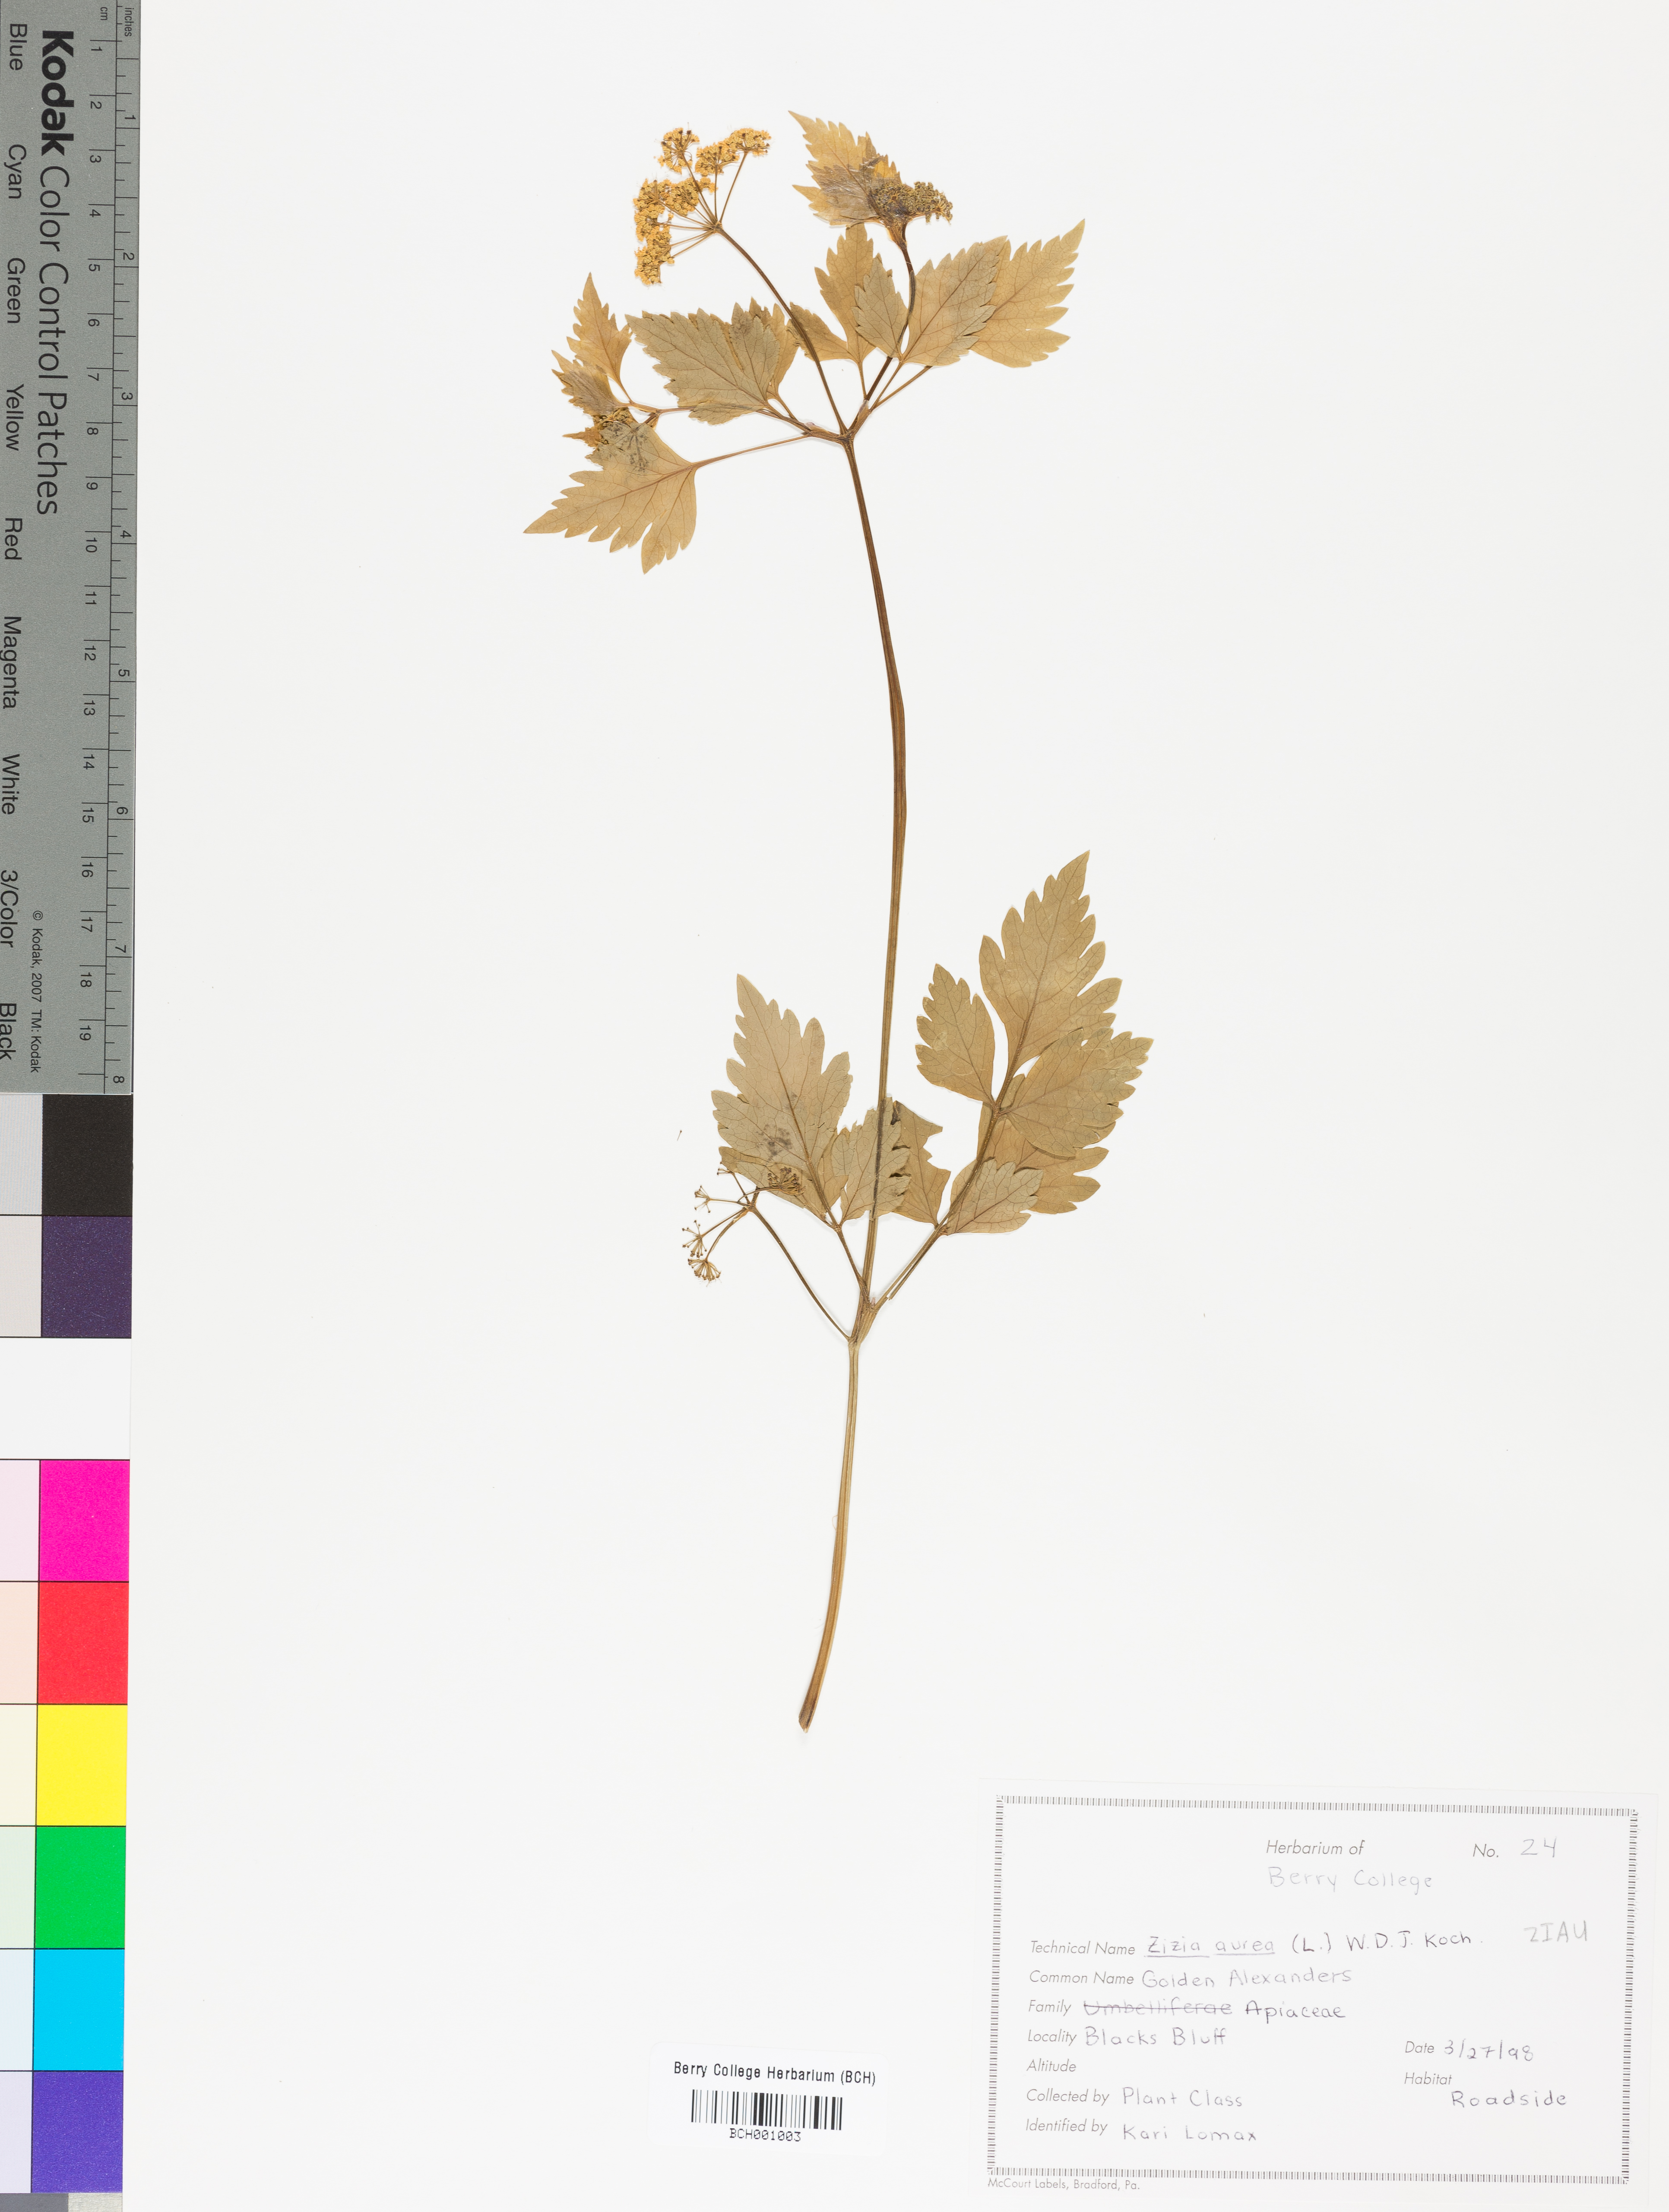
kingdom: Plantae
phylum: Tracheophyta
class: Magnoliopsida
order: Apiales
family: Apiaceae
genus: Zizia
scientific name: Zizia aurea
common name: Golden alexanders
